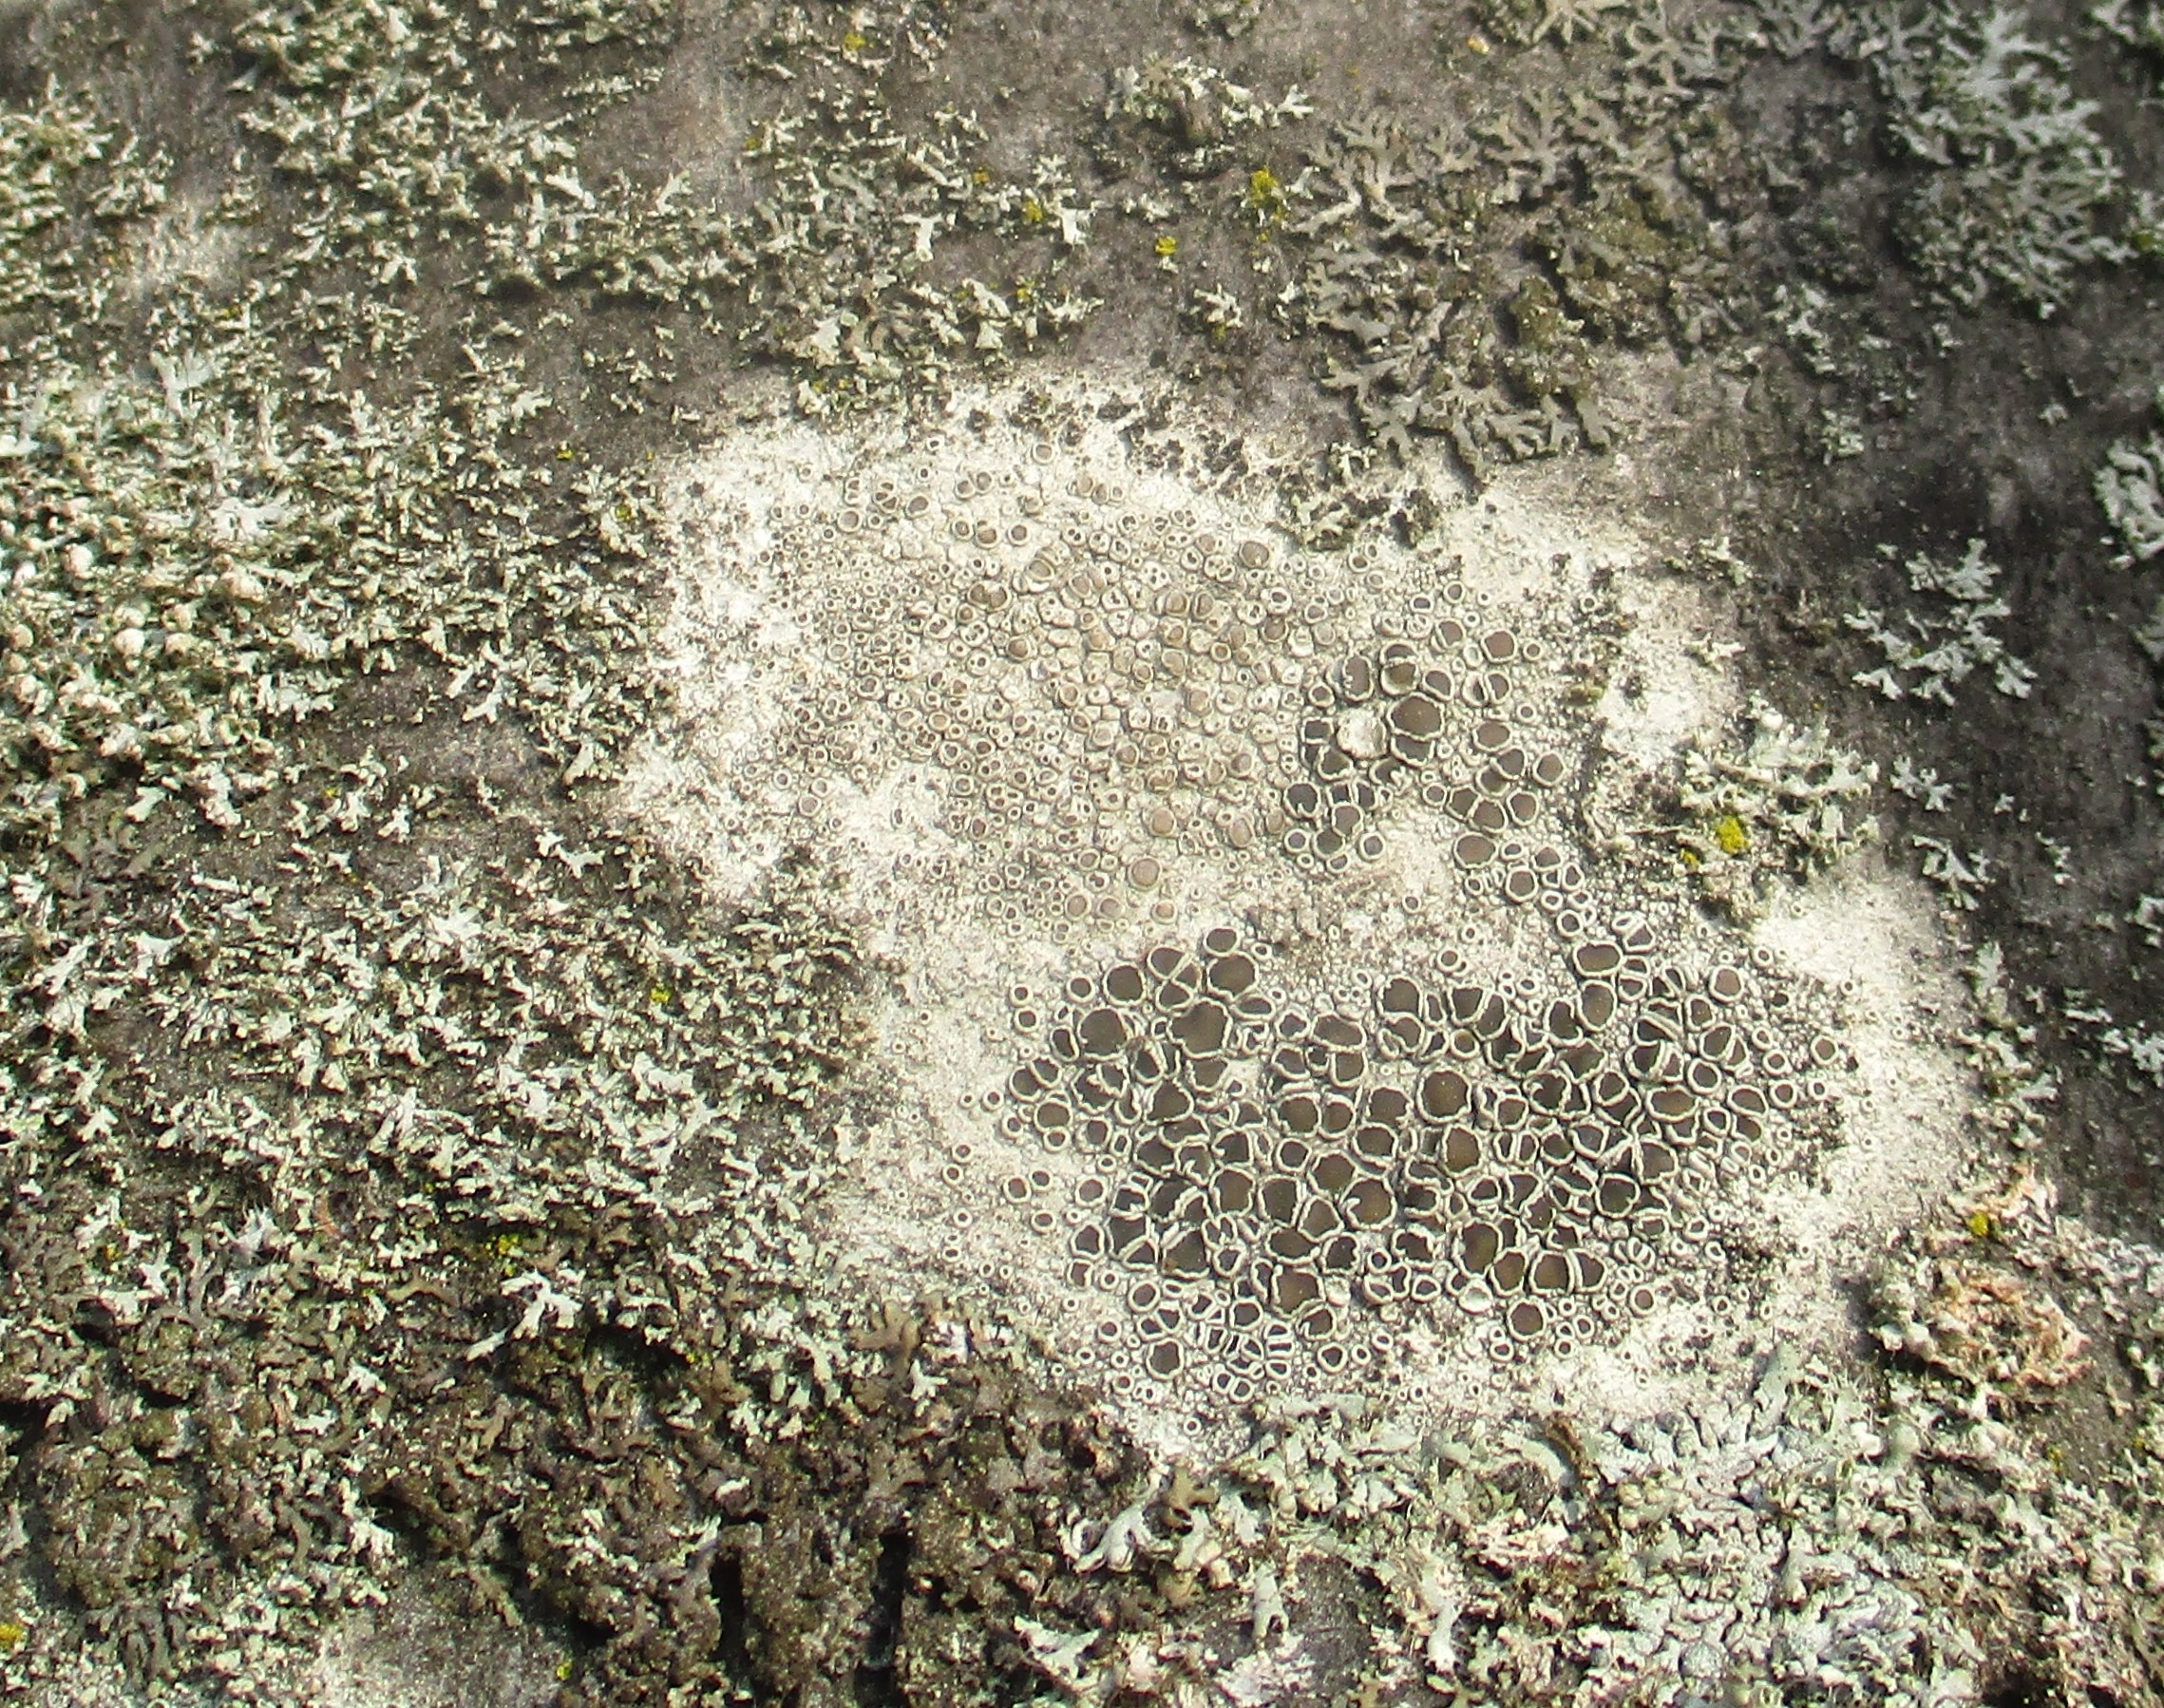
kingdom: Fungi
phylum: Ascomycota
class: Lecanoromycetes
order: Lecanorales
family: Lecanoraceae
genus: Lecanora
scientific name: Lecanora chlarotera
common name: Brun kantskivelav
